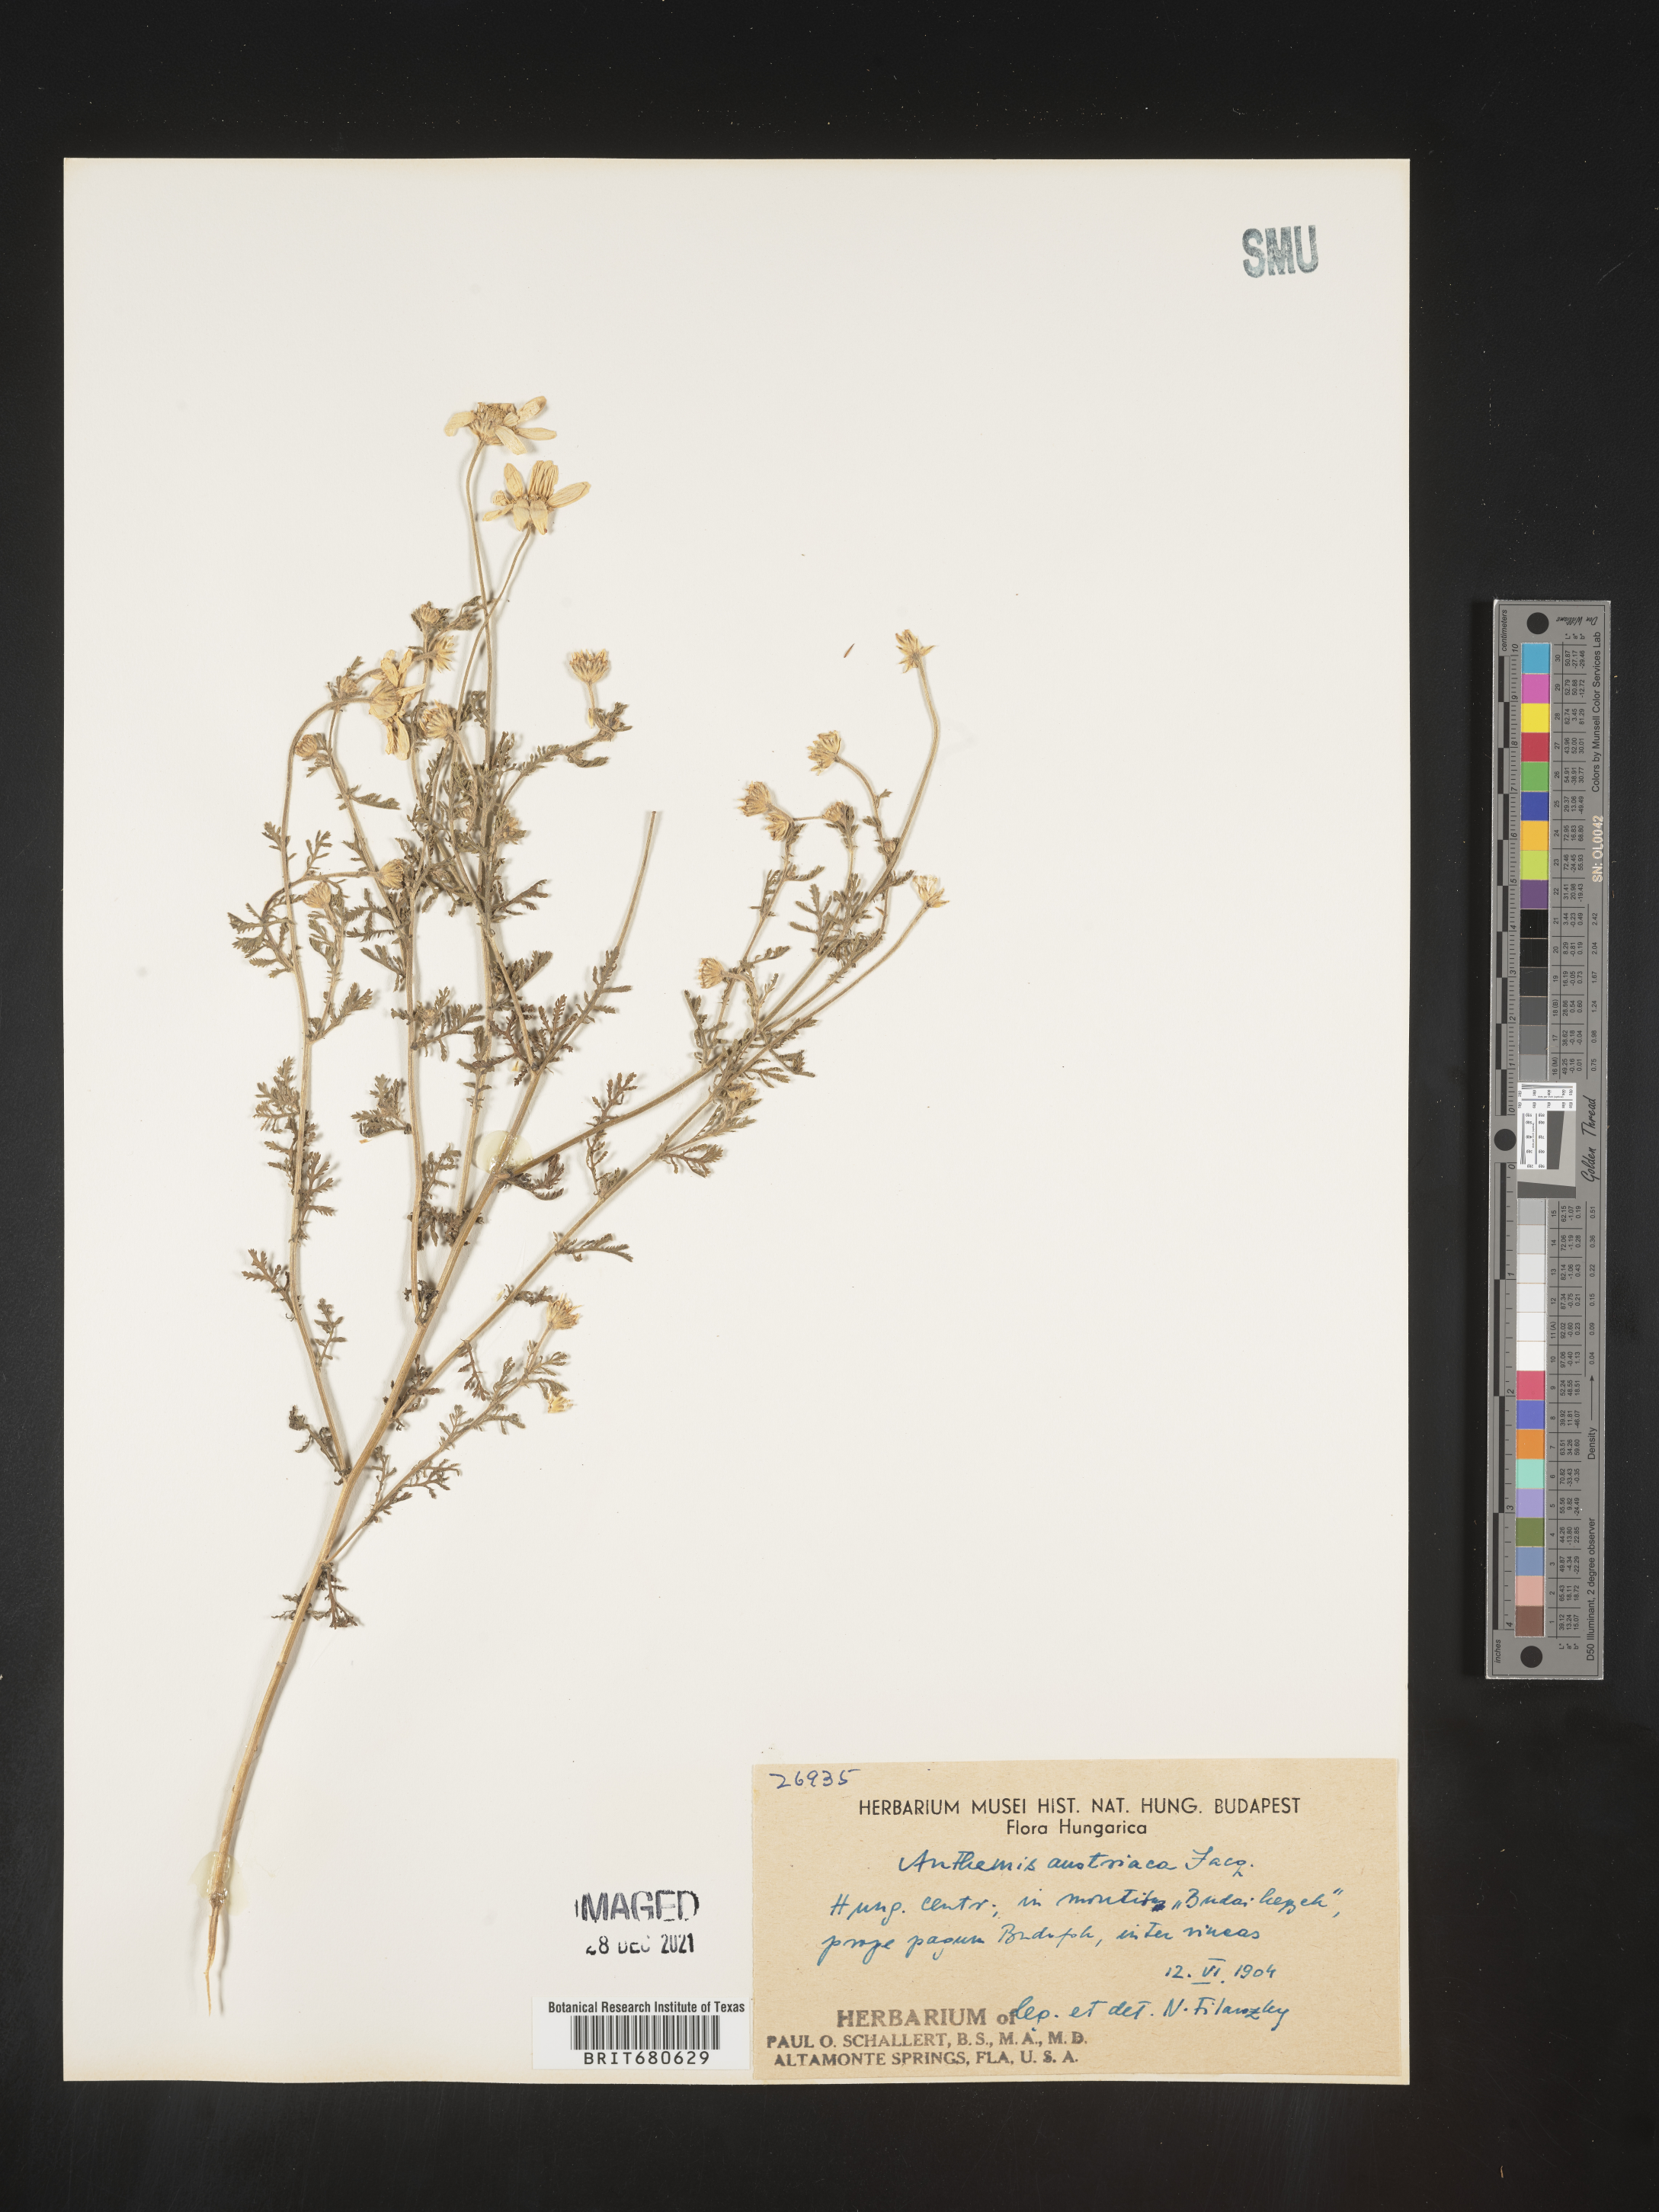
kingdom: Plantae
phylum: Tracheophyta
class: Magnoliopsida
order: Asterales
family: Asteraceae
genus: Anthemis
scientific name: Anthemis
